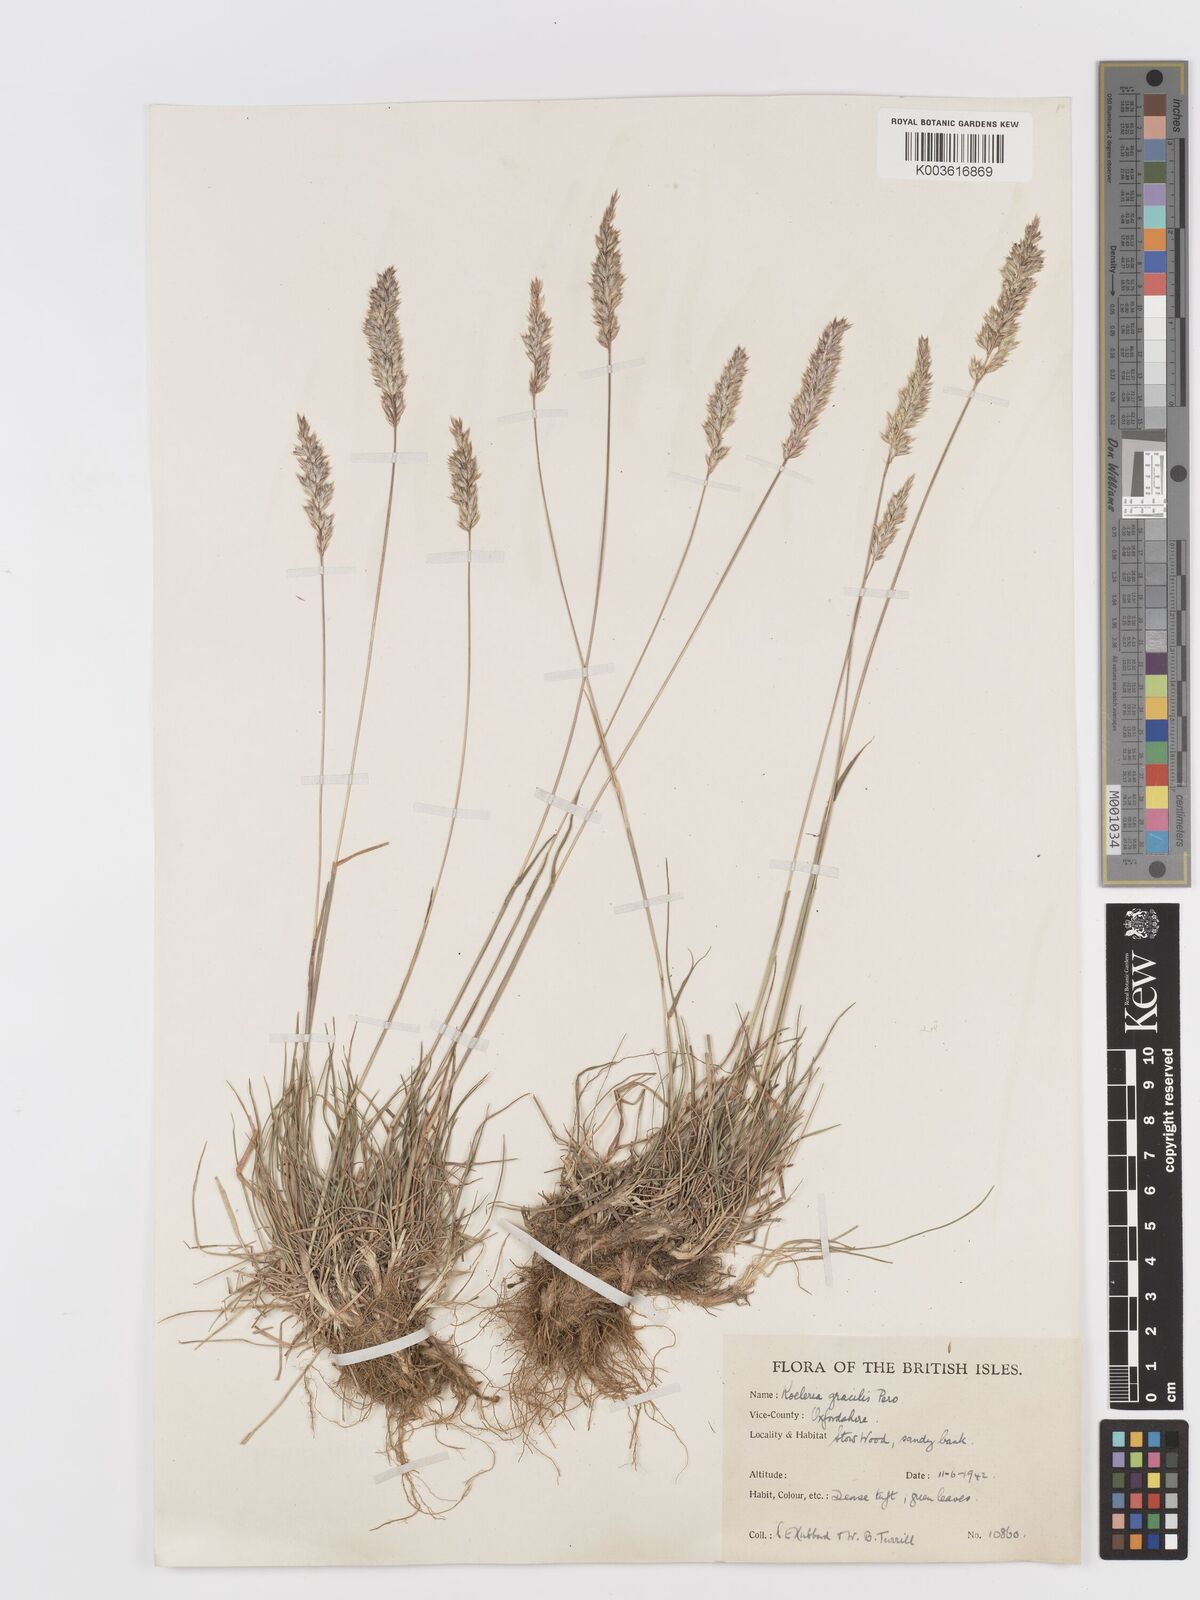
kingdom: Plantae
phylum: Tracheophyta
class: Liliopsida
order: Poales
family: Poaceae
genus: Koeleria
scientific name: Koeleria macrantha
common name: Crested hair-grass
